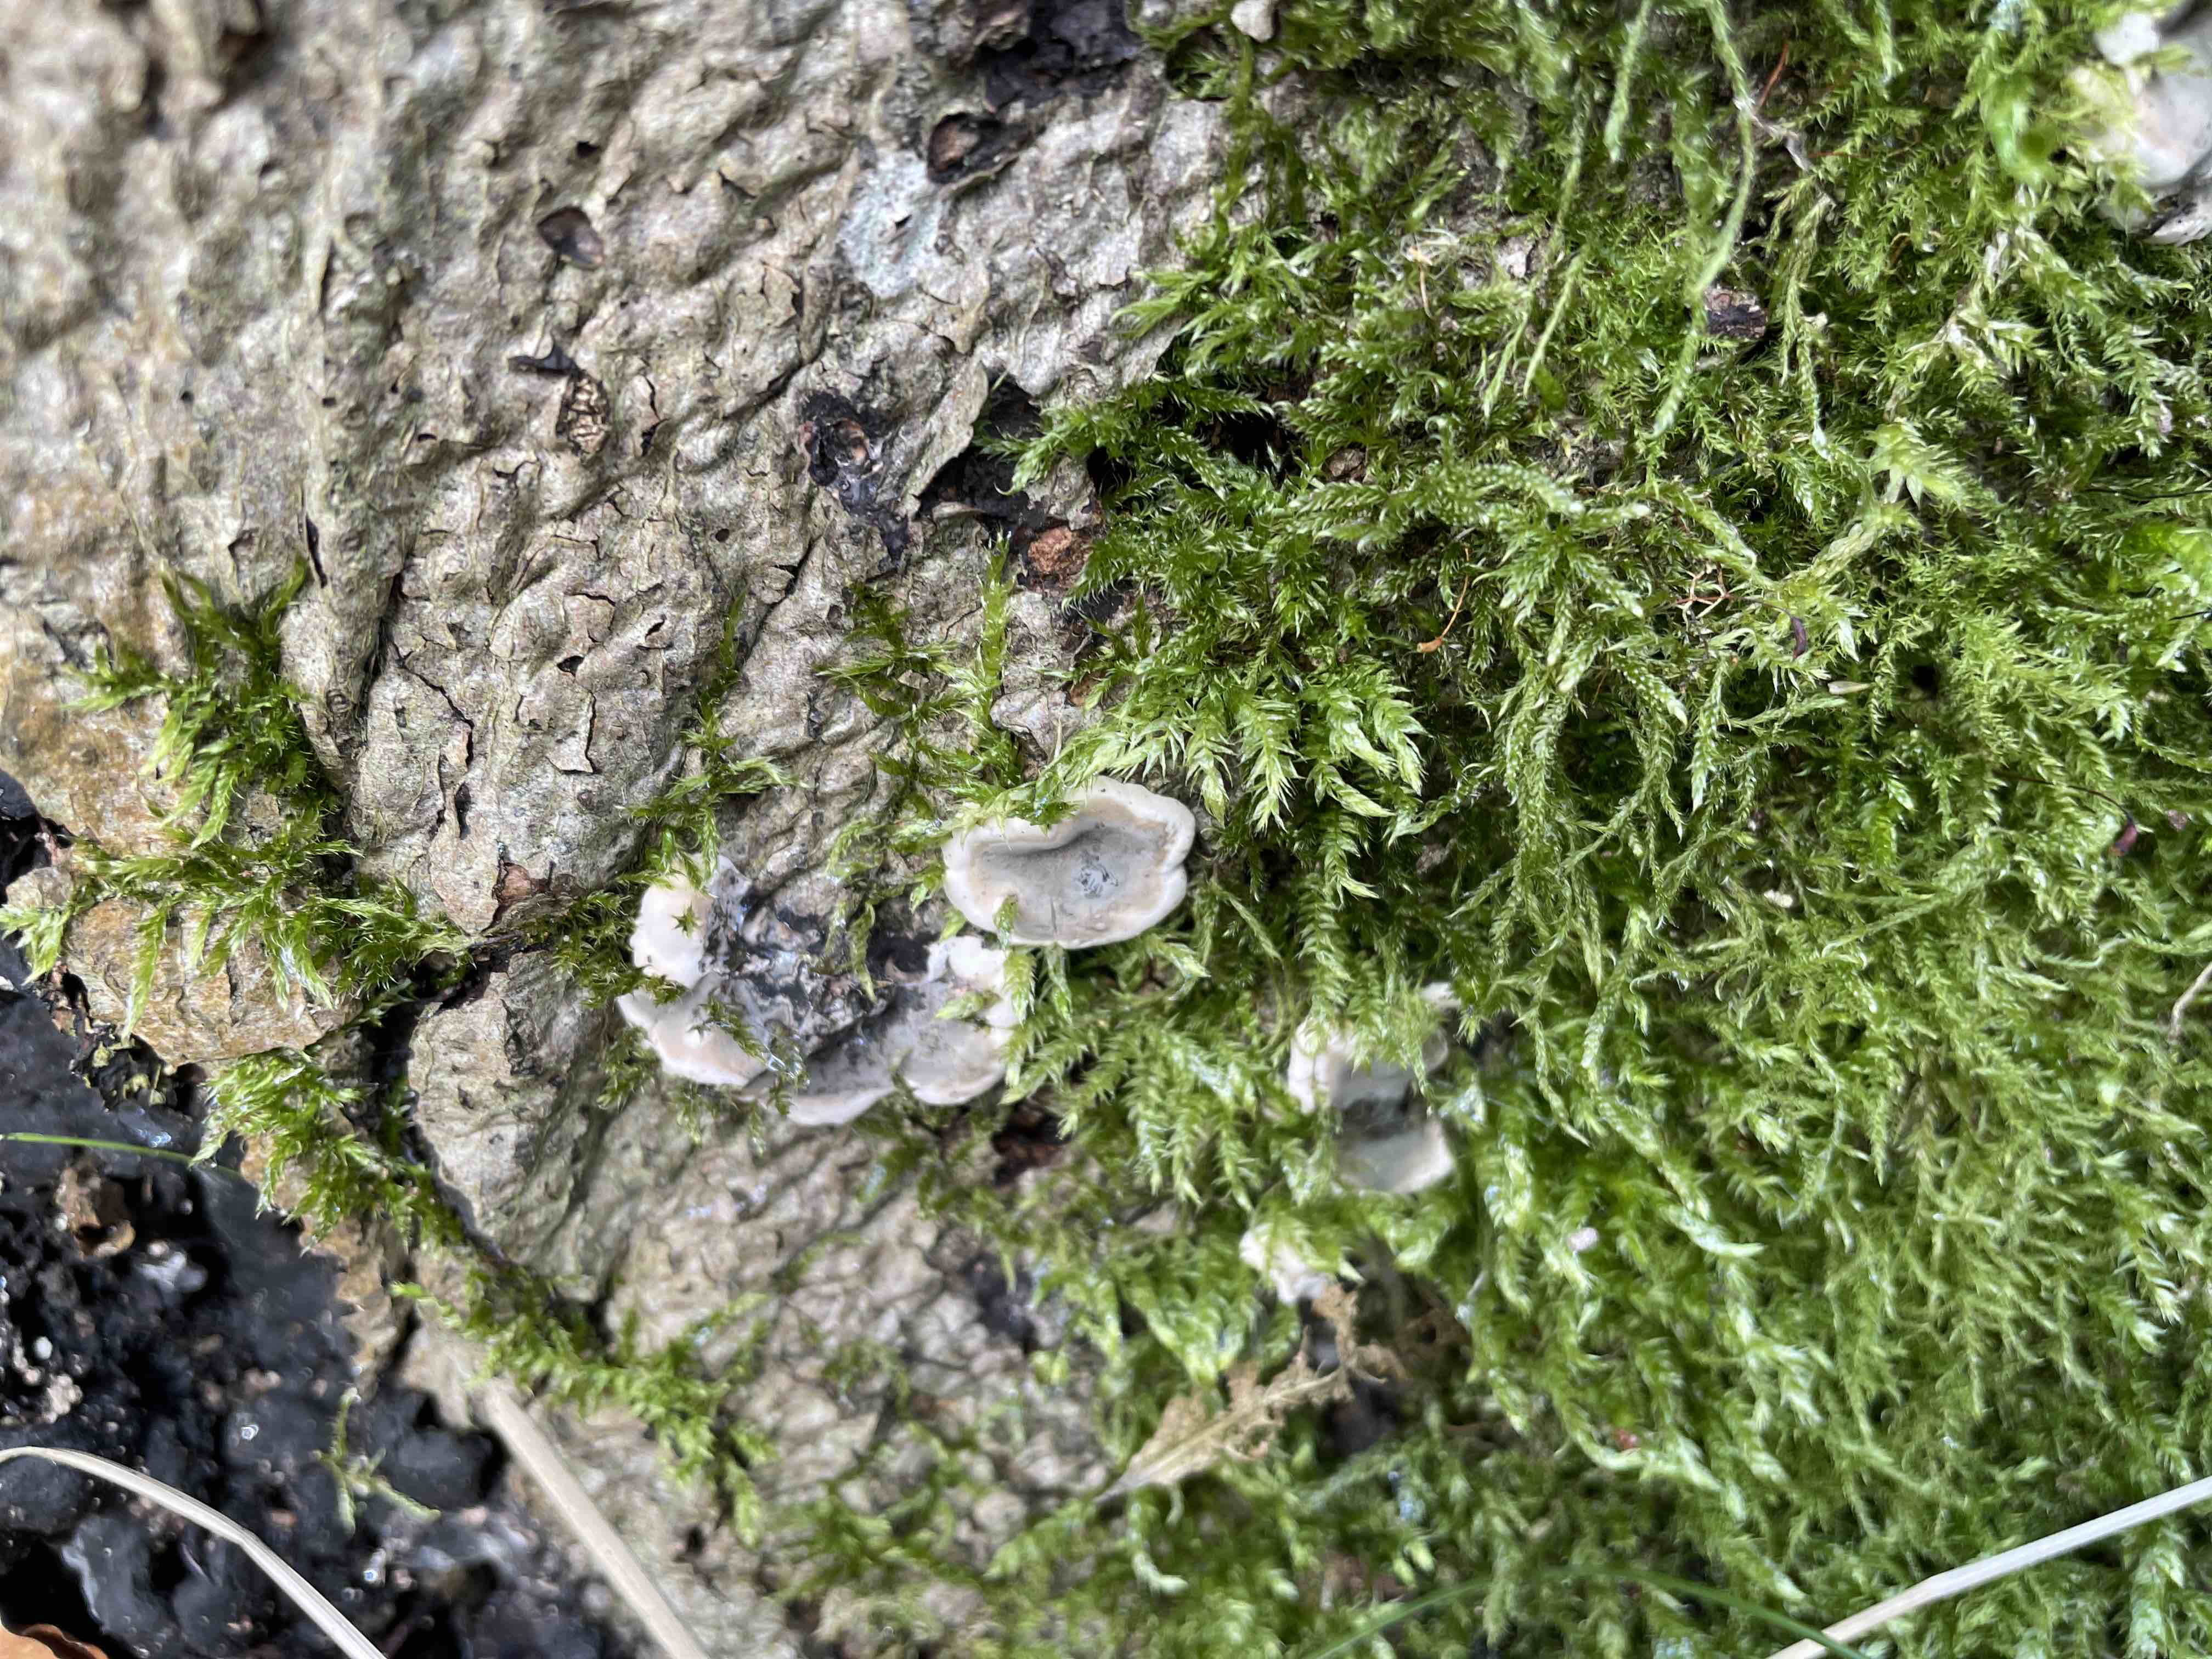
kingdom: Fungi
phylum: Ascomycota
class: Sordariomycetes
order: Xylariales
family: Xylariaceae
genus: Kretzschmaria
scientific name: Kretzschmaria deusta
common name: stor kulsvamp
